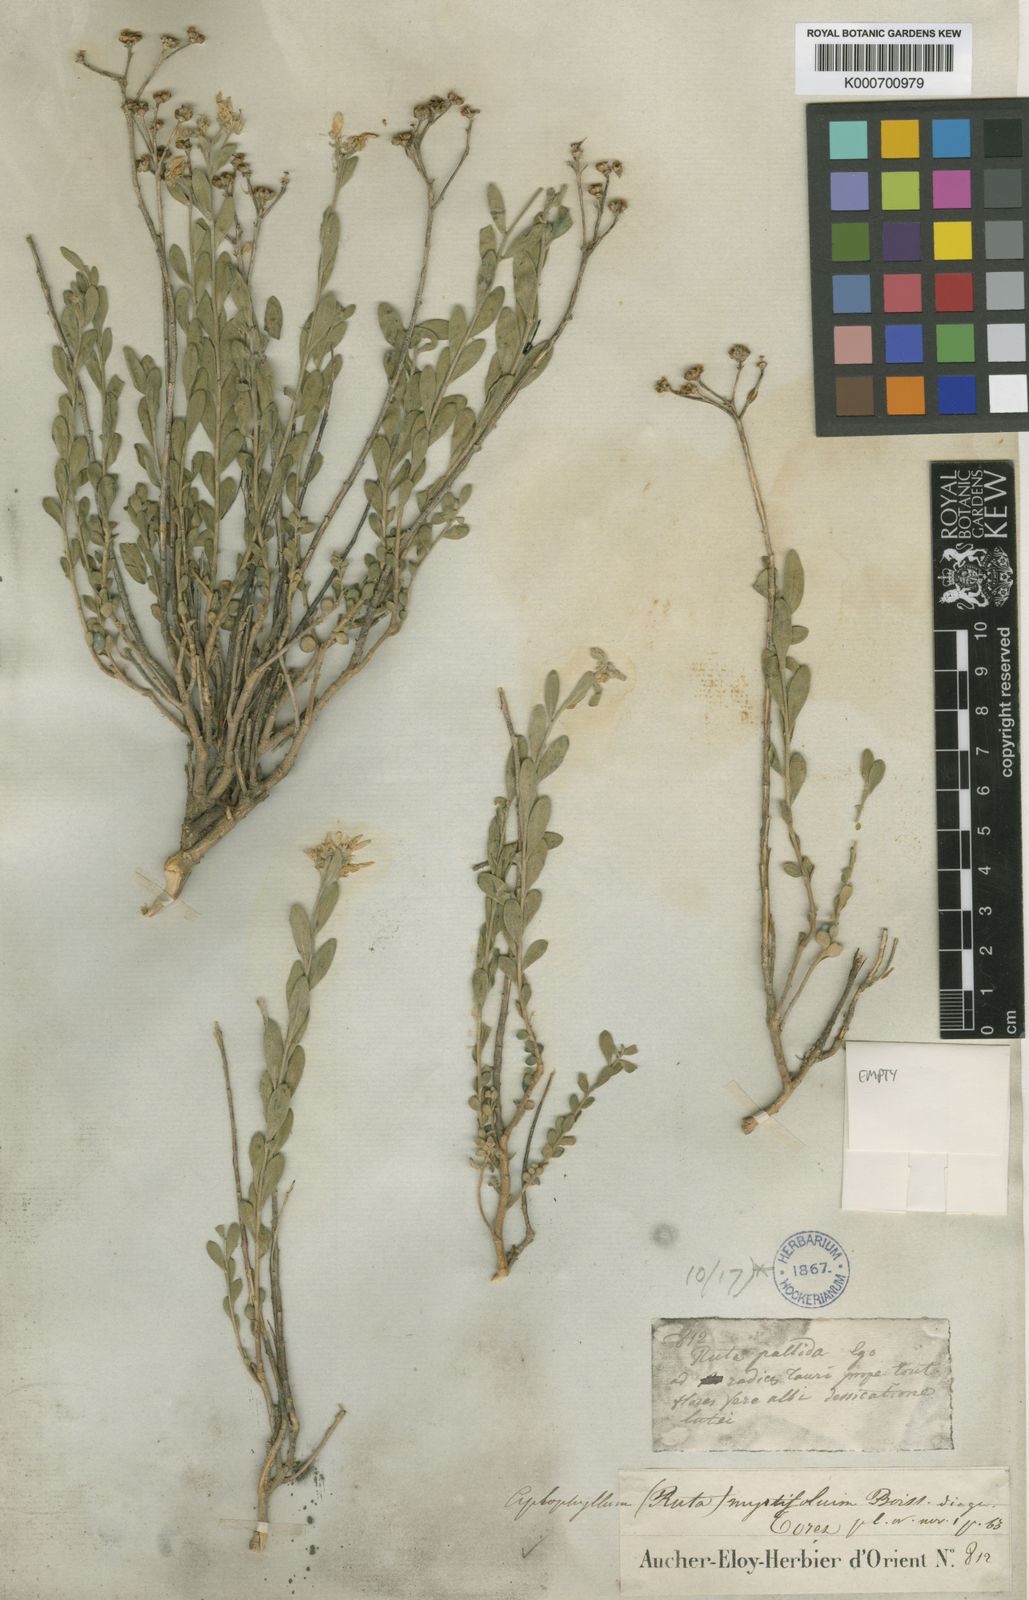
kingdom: Plantae
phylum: Tracheophyta
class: Magnoliopsida
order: Sapindales
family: Rutaceae
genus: Haplophyllum
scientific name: Haplophyllum myrtifolium
